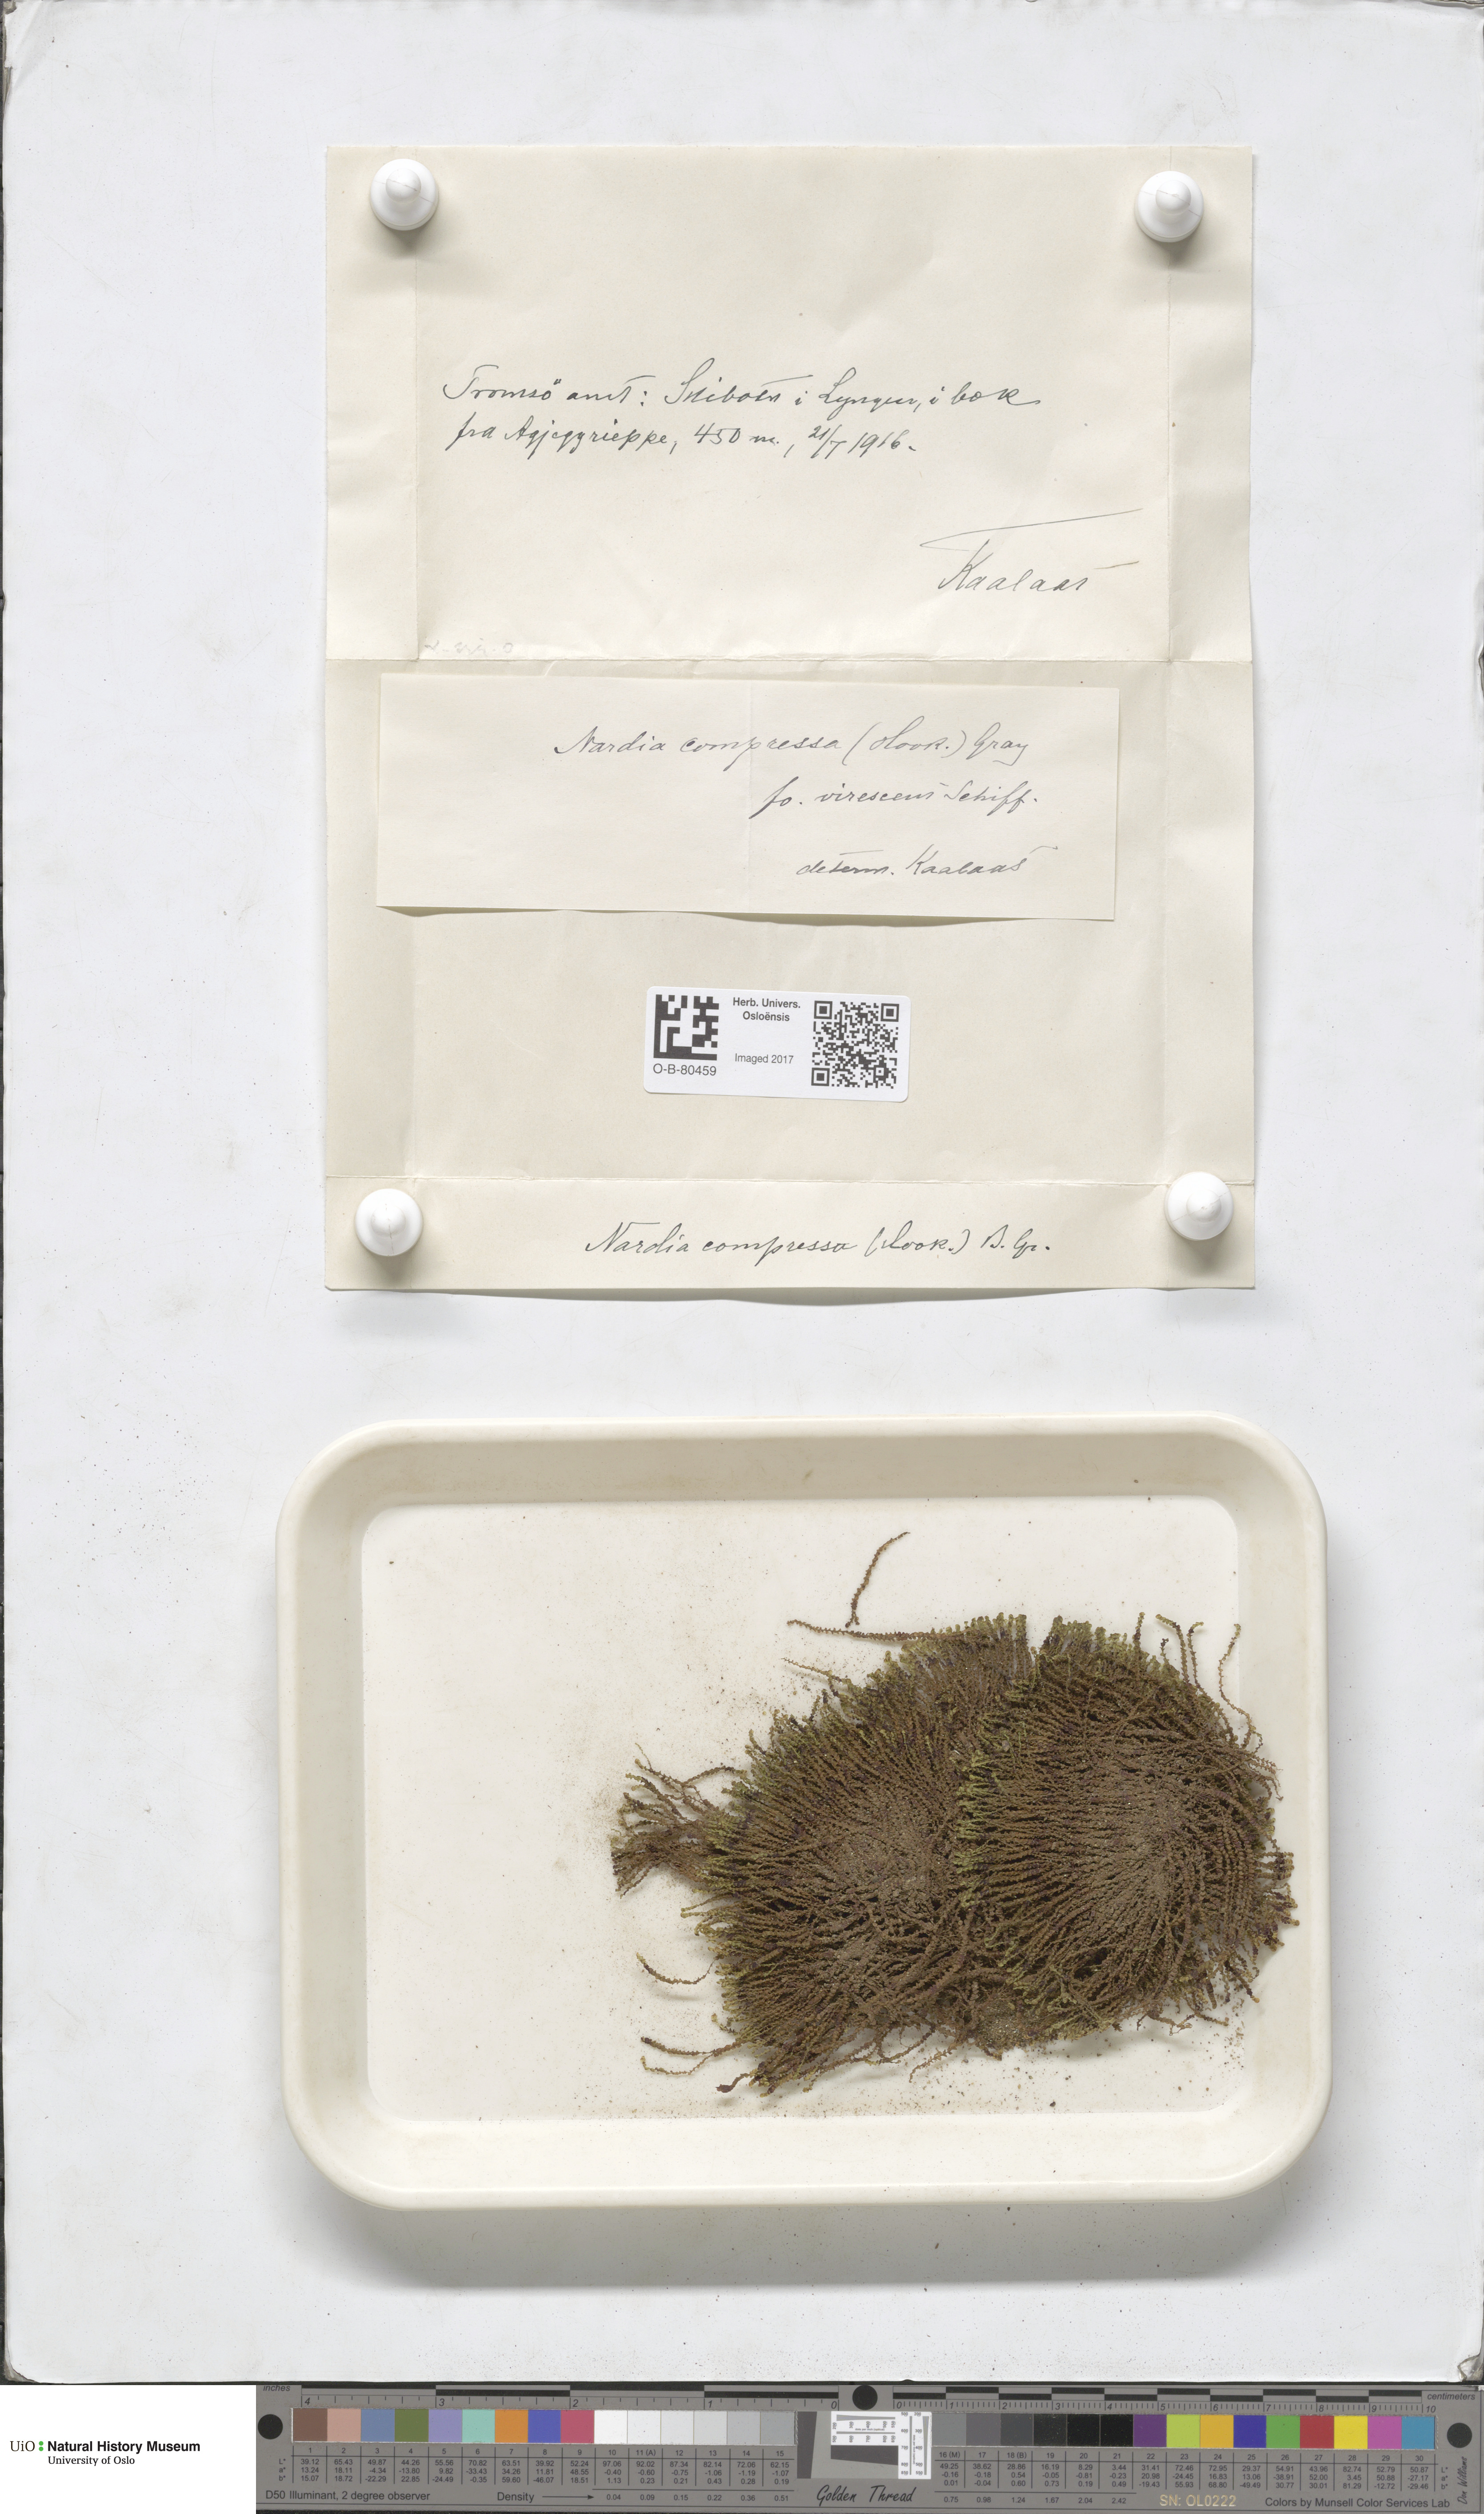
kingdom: Plantae
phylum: Marchantiophyta
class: Jungermanniopsida
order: Jungermanniales
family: Gymnomitriaceae
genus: Nardia
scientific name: Nardia compressa
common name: Compressed flapwort
